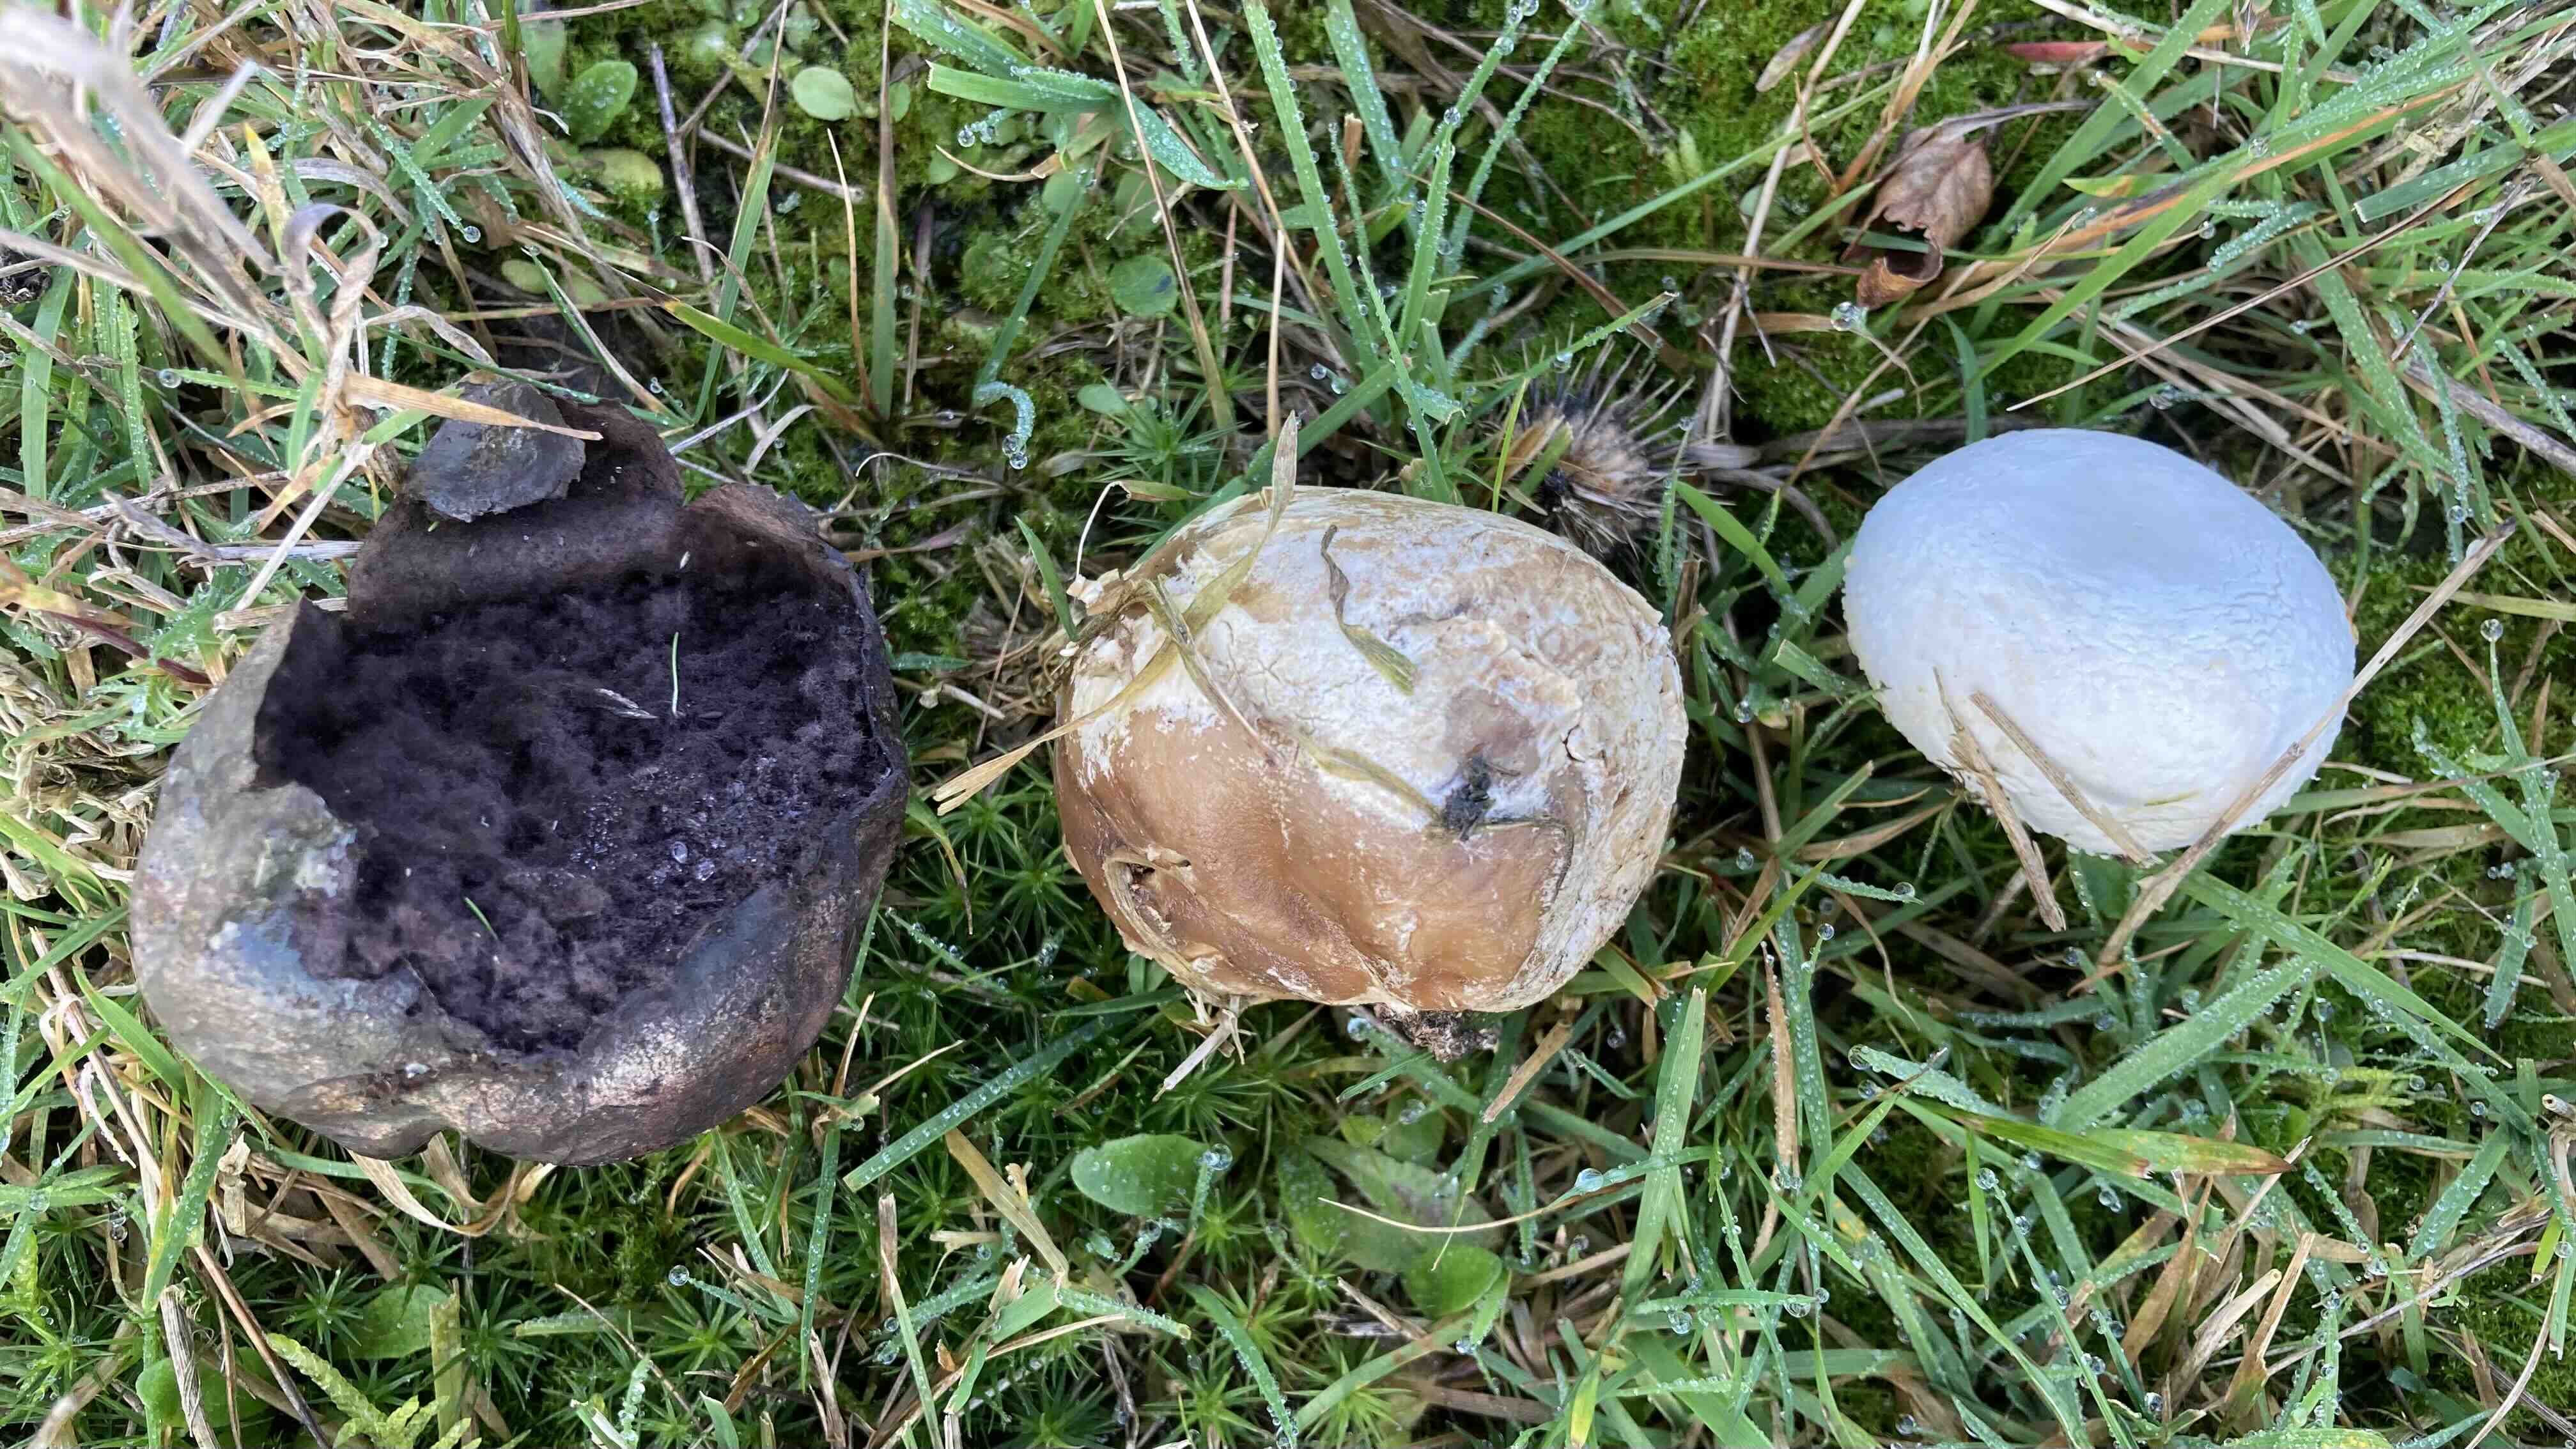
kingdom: Fungi
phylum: Basidiomycota
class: Agaricomycetes
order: Agaricales
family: Lycoperdaceae
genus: Bovista
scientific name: Bovista
